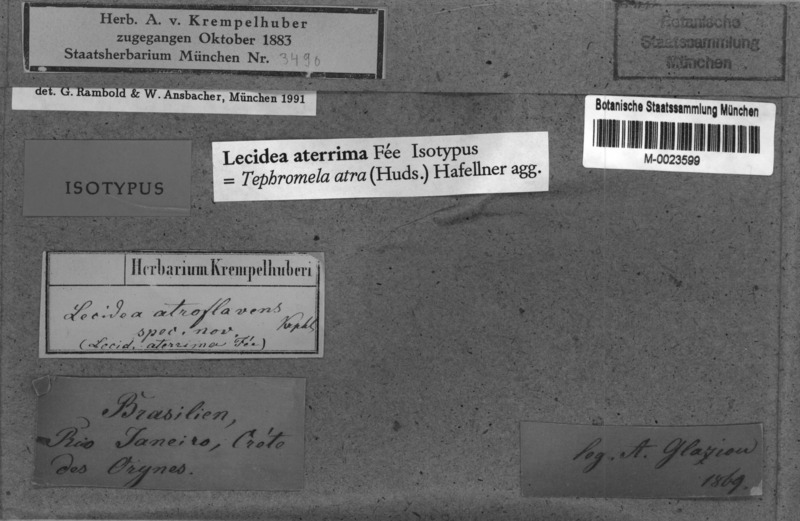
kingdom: Fungi
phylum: Ascomycota
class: Lecanoromycetes
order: Lecanorales
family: Tephromelataceae
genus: Tephromela
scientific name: Tephromela atra
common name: Black shields
